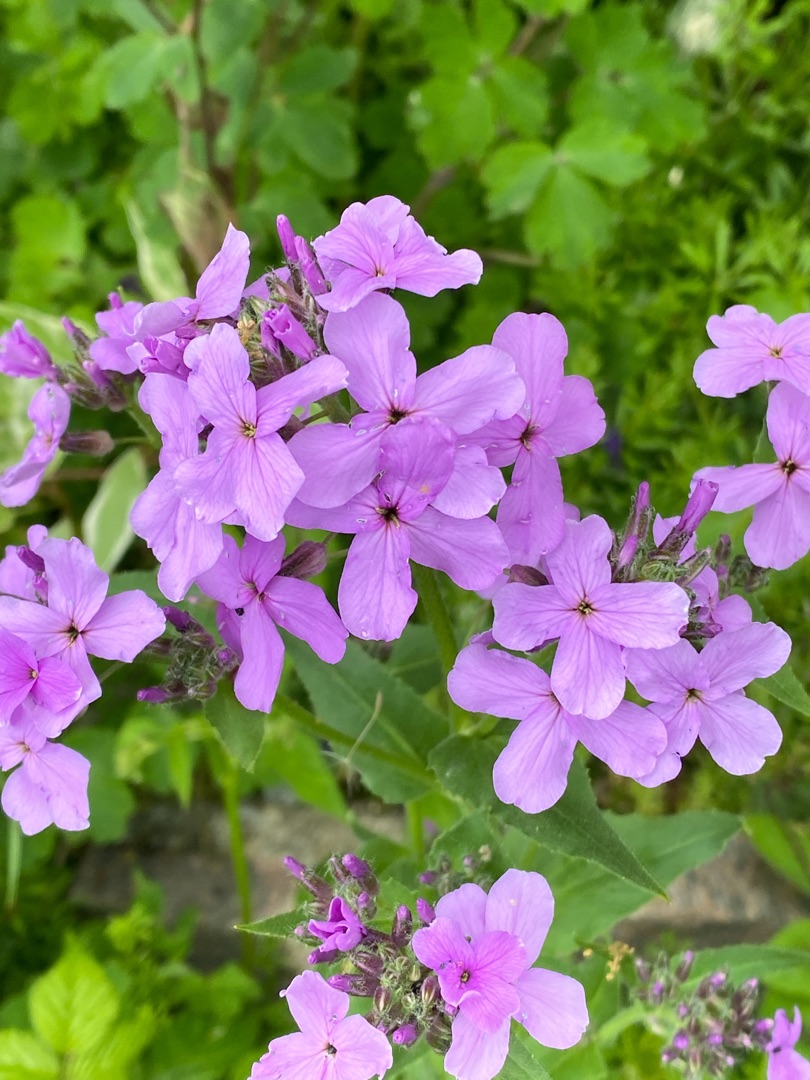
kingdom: Plantae
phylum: Tracheophyta
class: Magnoliopsida
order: Brassicales
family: Brassicaceae
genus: Hesperis
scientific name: Hesperis matronalis
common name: Aftenstjerne
